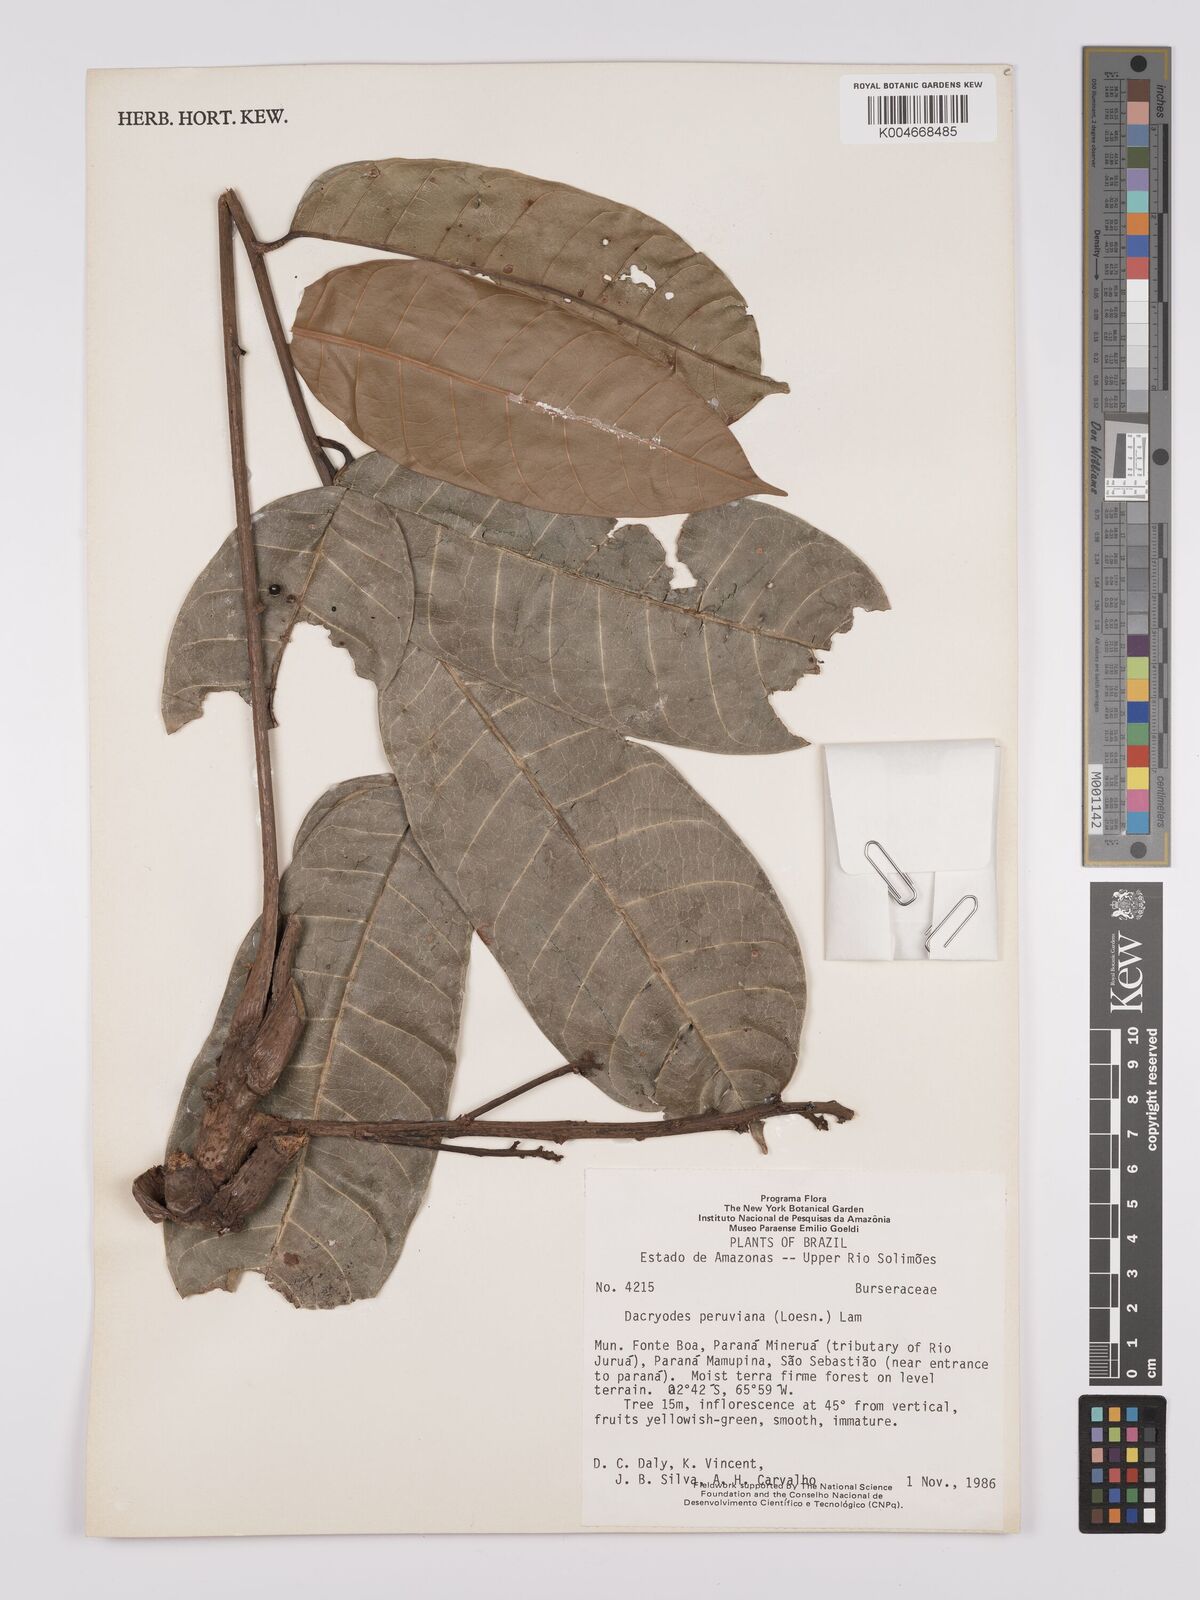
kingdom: Plantae
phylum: Tracheophyta
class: Magnoliopsida
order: Sapindales
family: Burseraceae
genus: Dacryodes
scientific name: Dacryodes peruviana
